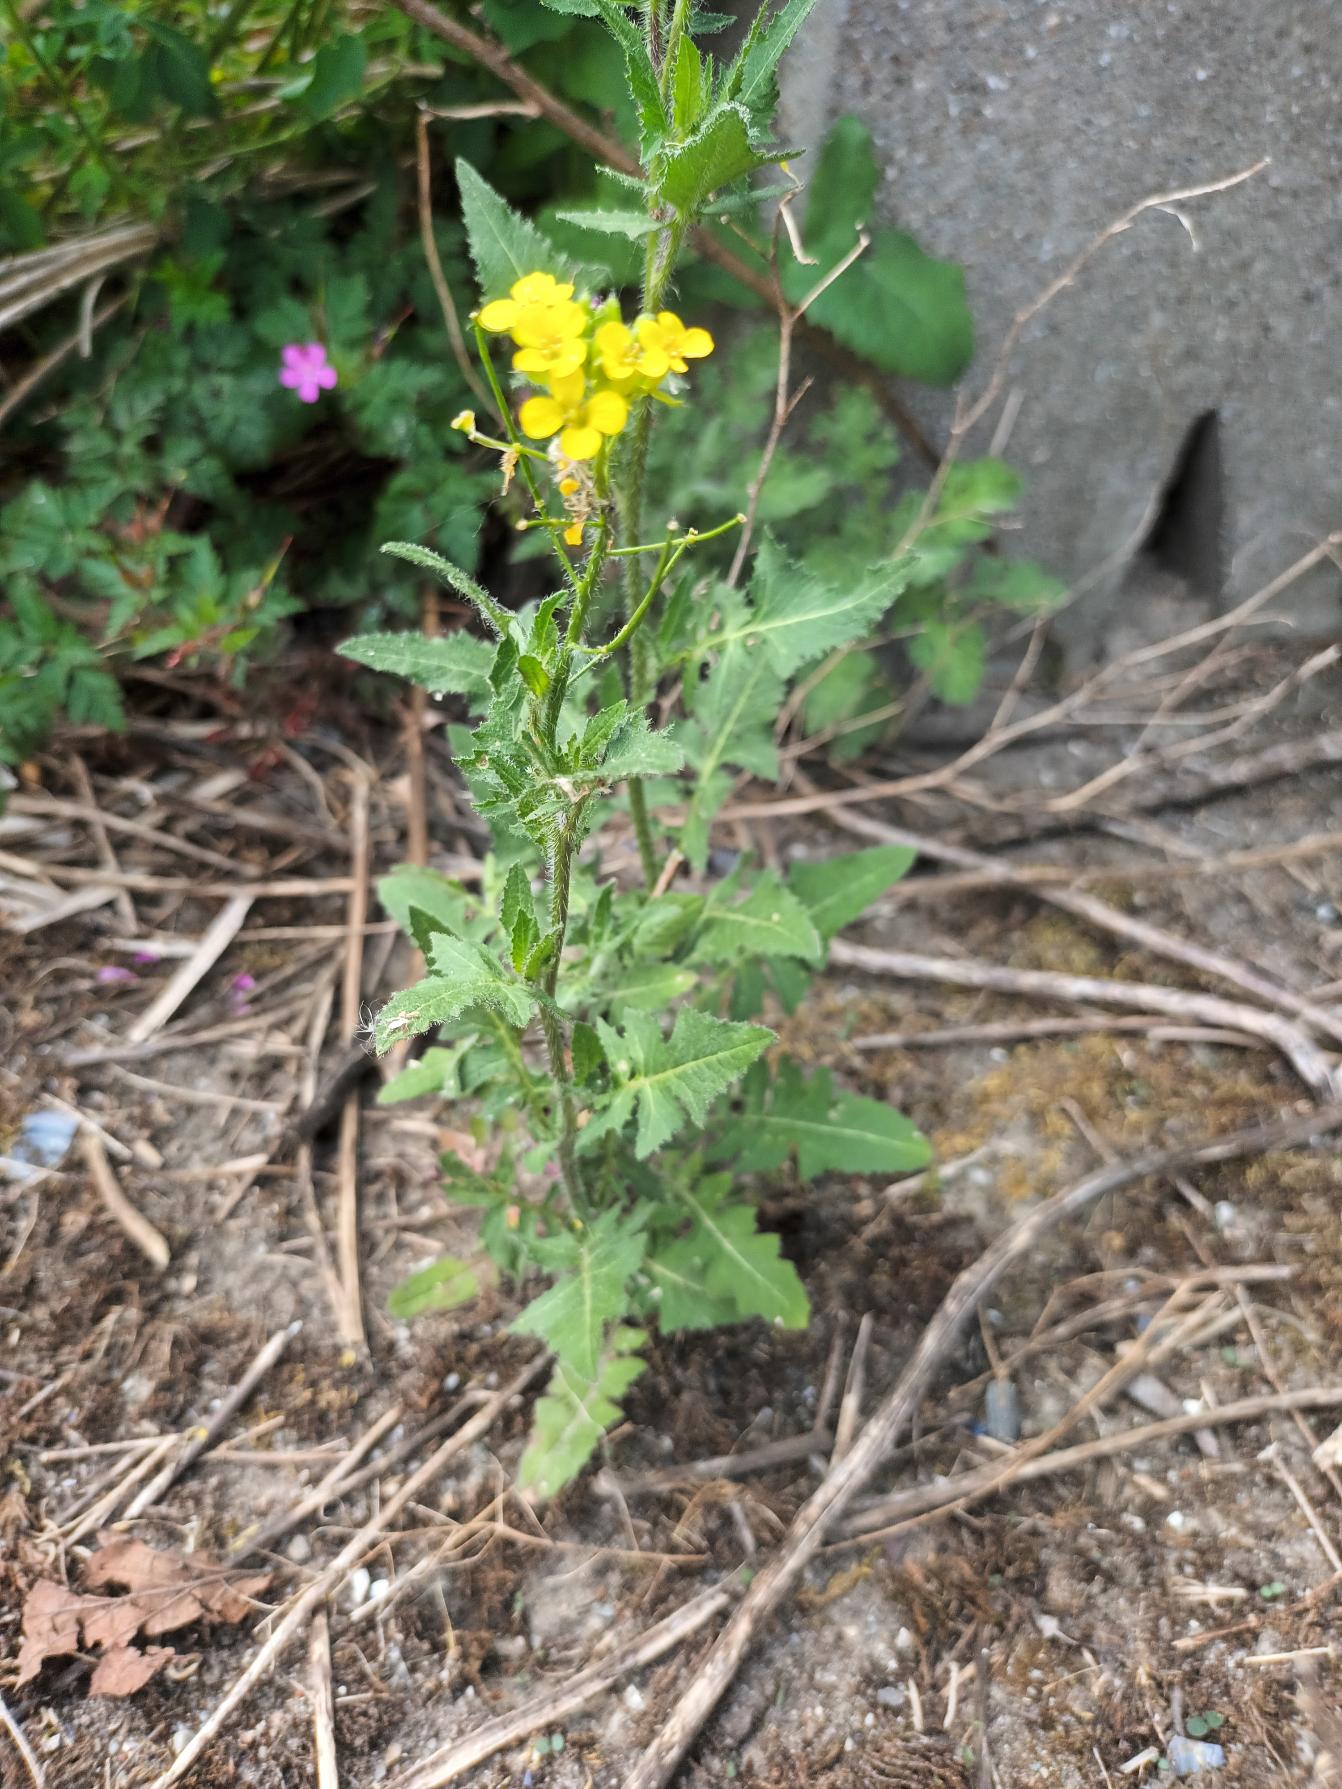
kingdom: Plantae
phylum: Tracheophyta
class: Magnoliopsida
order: Brassicales
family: Brassicaceae
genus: Sisymbrium
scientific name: Sisymbrium loeselii
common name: Stivhåret vejsennep
